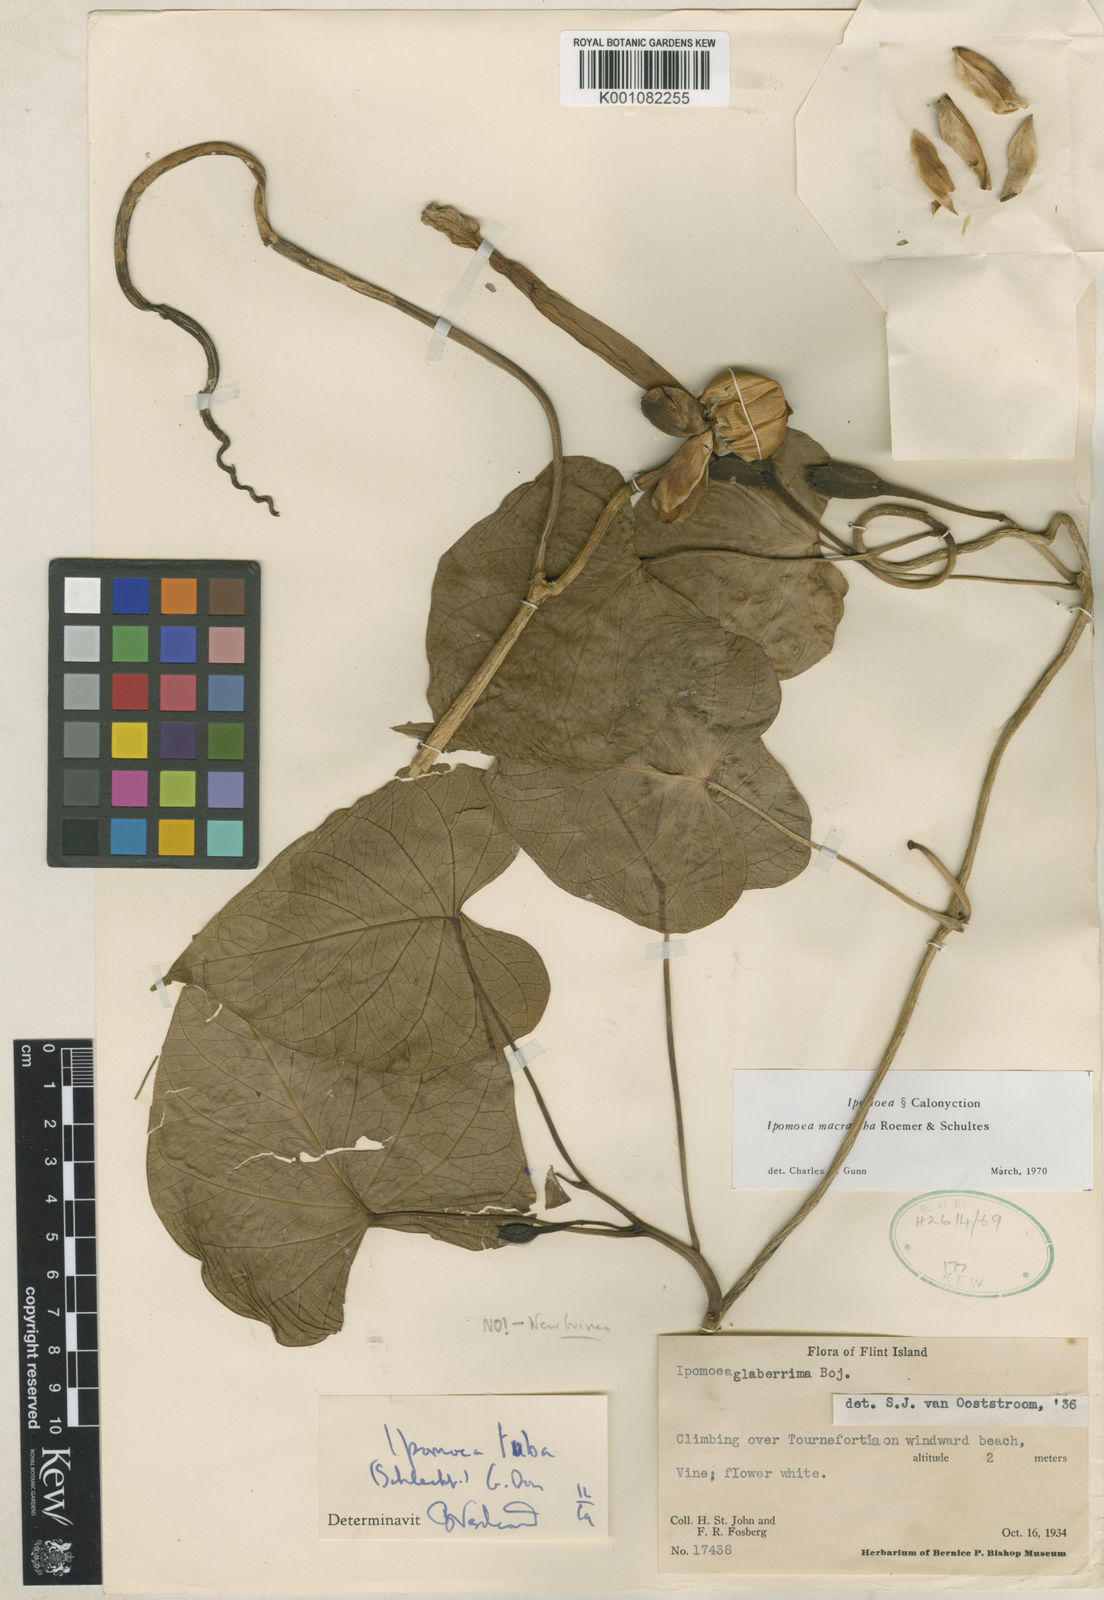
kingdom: Plantae
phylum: Tracheophyta
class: Magnoliopsida
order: Solanales
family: Convolvulaceae
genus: Ipomoea
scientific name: Ipomoea violacea
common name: Beach moonflower
